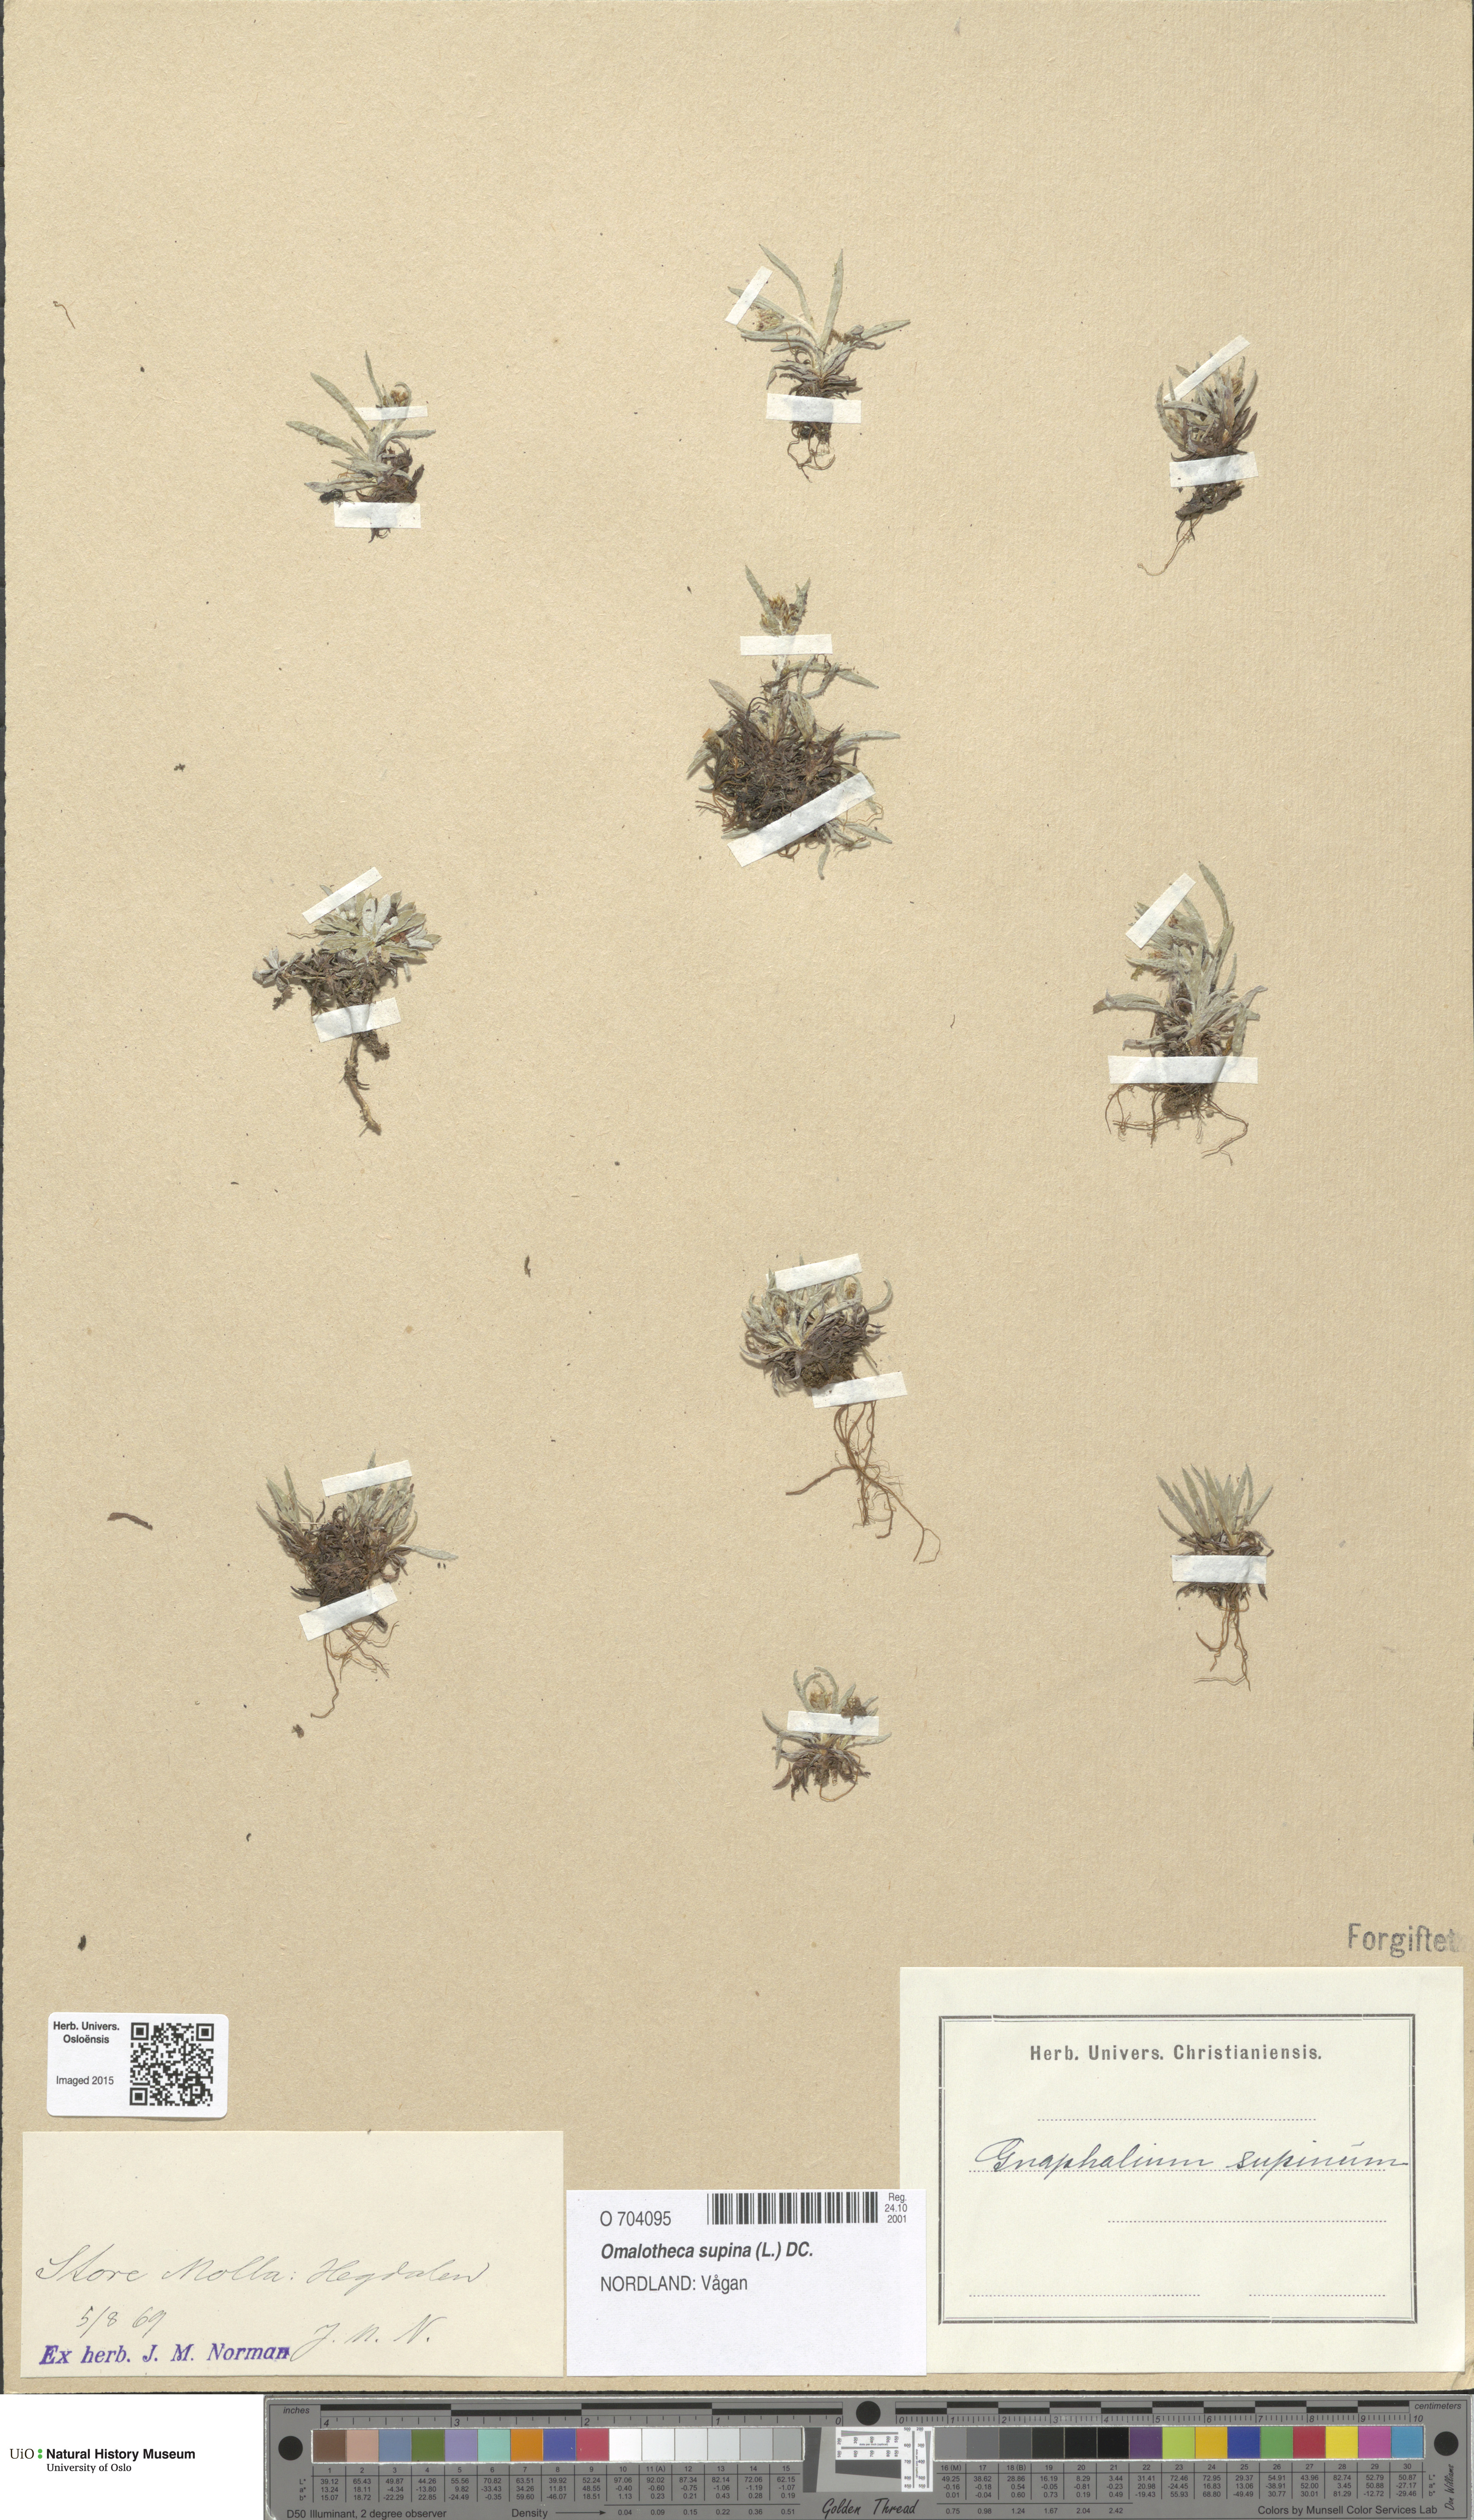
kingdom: Plantae
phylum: Tracheophyta
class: Magnoliopsida
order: Asterales
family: Asteraceae
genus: Omalotheca
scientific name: Omalotheca supina
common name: Alpine arctic-cudweed
